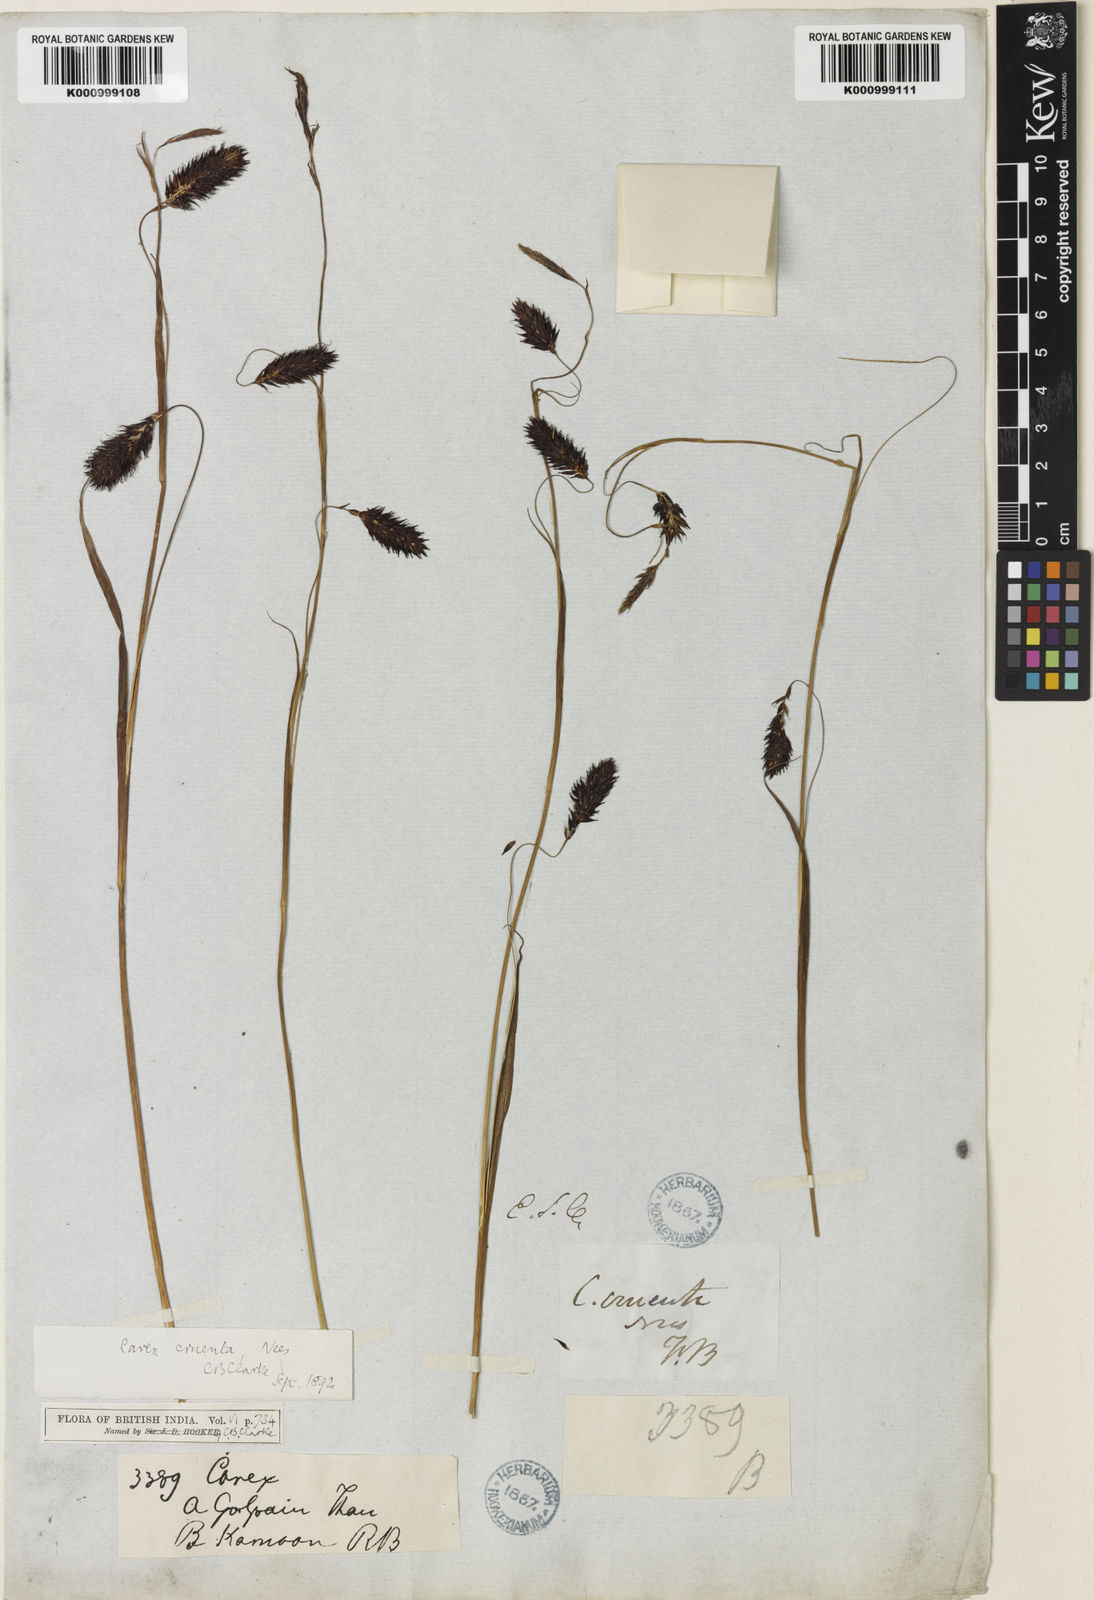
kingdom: Plantae
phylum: Tracheophyta
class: Liliopsida
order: Poales
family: Cyperaceae
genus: Carex
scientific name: Carex cruenta
